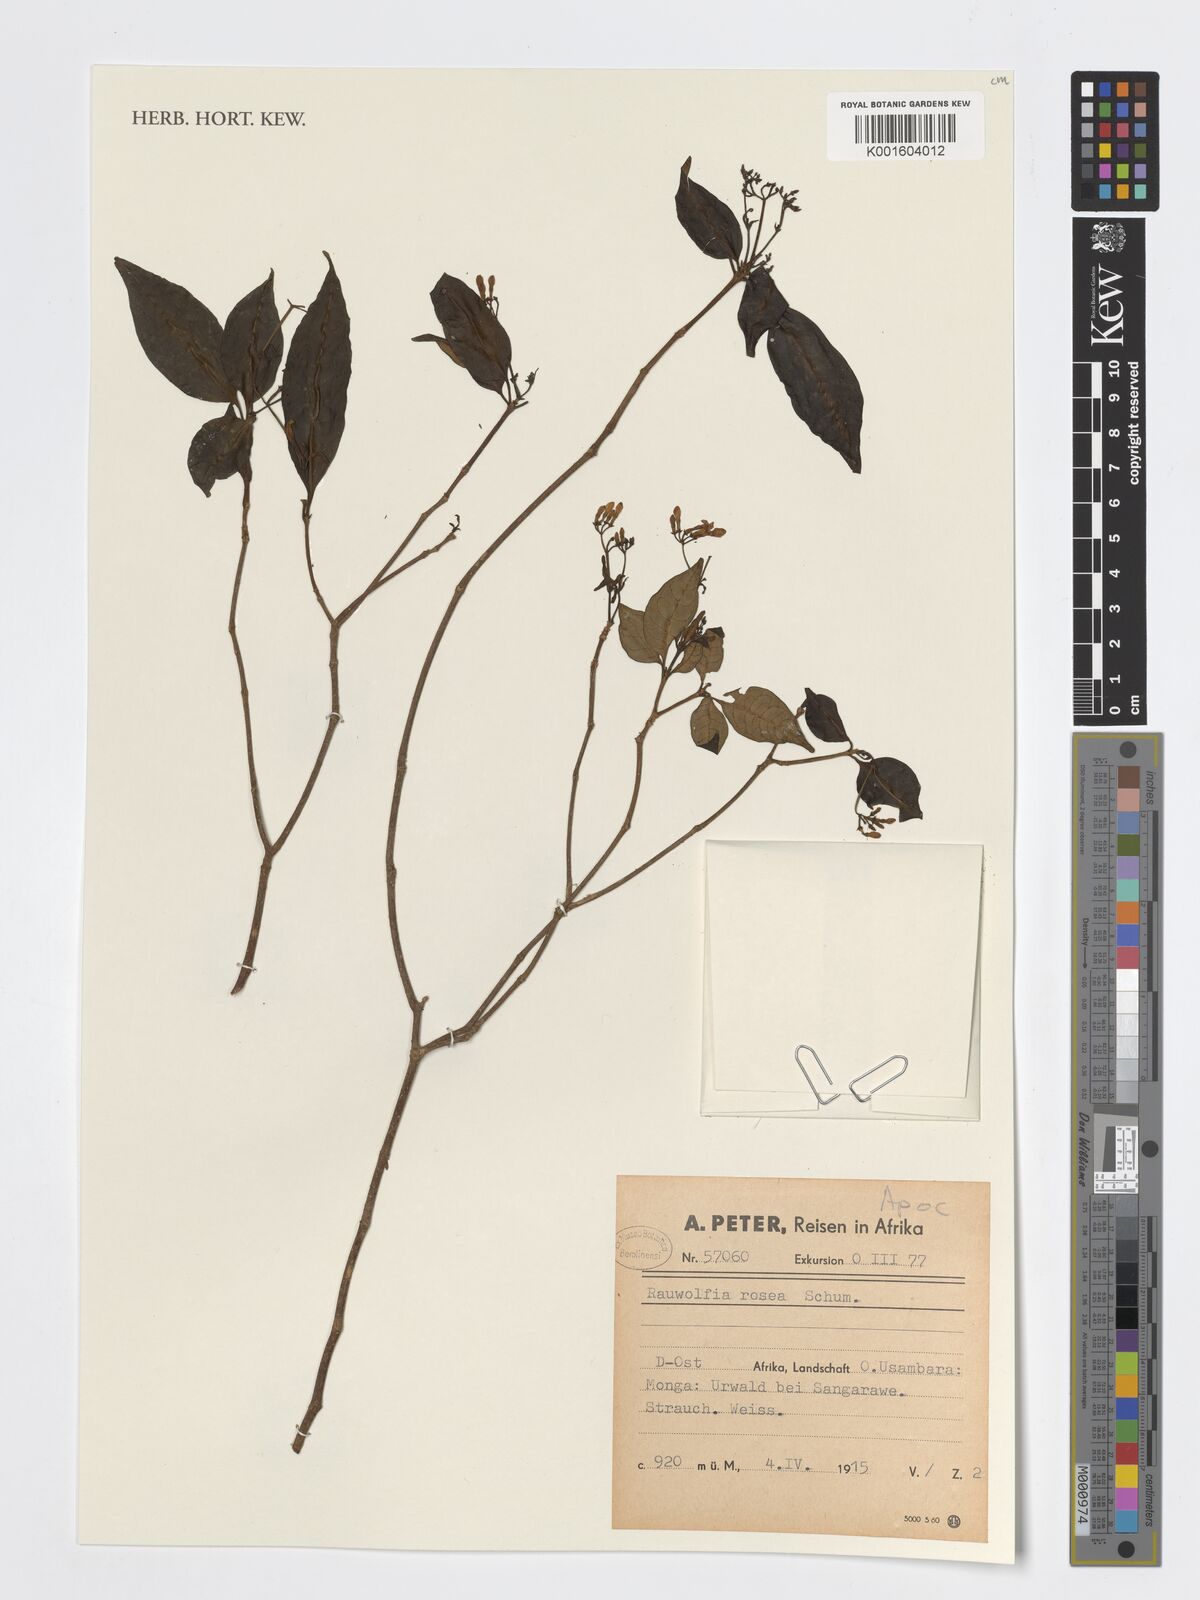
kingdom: Plantae
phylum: Tracheophyta
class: Magnoliopsida
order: Gentianales
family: Apocynaceae
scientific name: Apocynaceae
